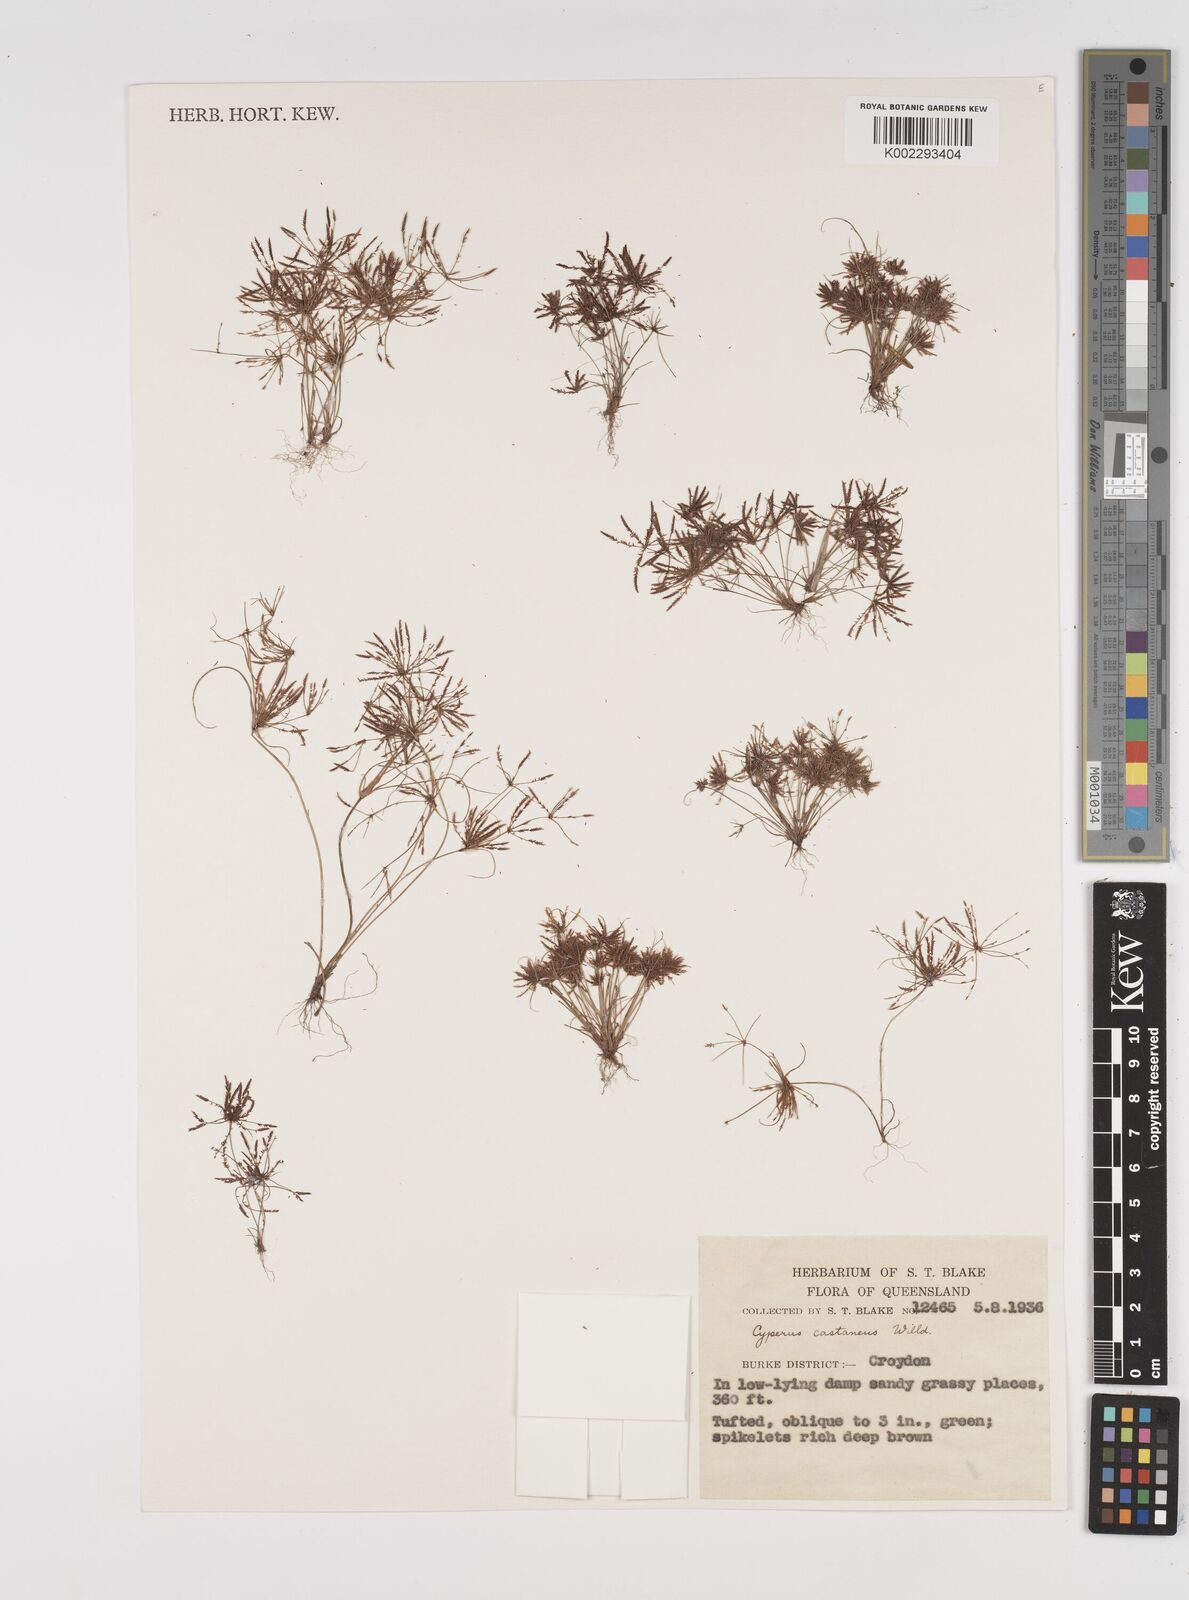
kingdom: Plantae
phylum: Tracheophyta
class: Liliopsida
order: Poales
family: Cyperaceae
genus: Cyperus
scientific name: Cyperus castaneus
